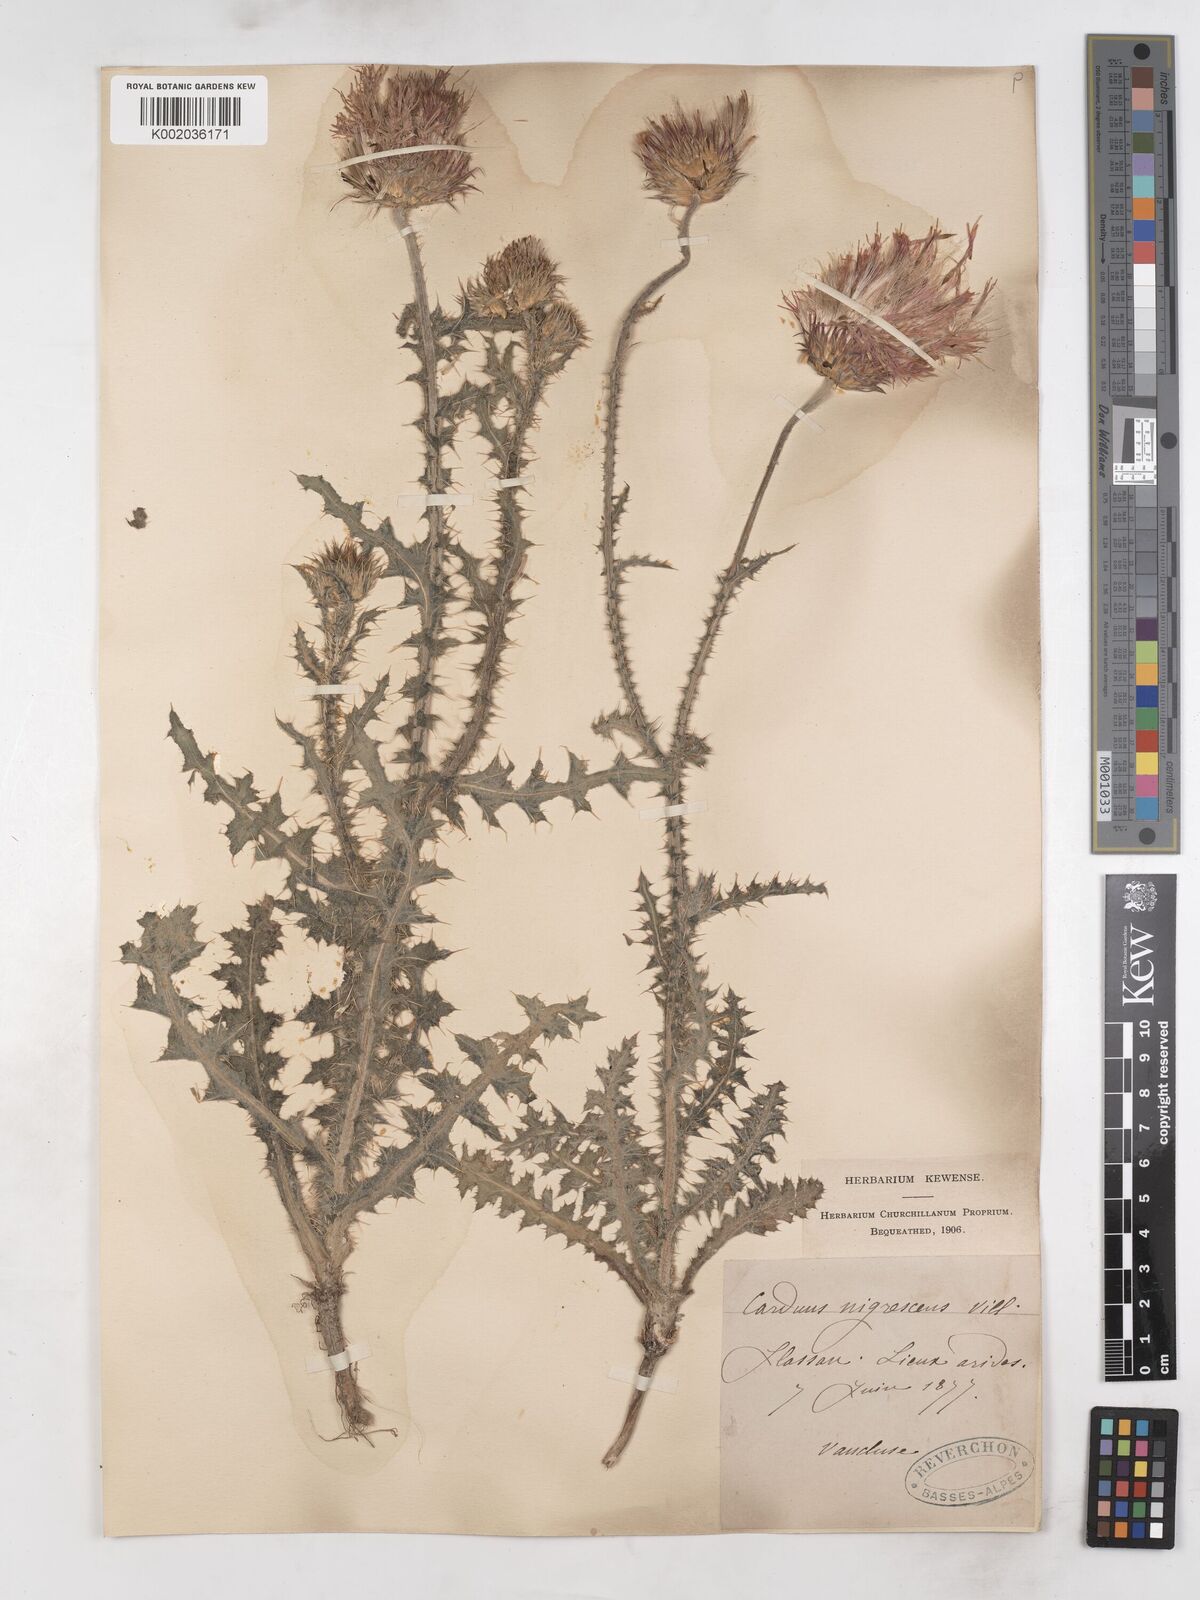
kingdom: Plantae
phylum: Tracheophyta
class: Magnoliopsida
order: Asterales
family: Asteraceae
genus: Carduus
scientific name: Carduus nigrescens
